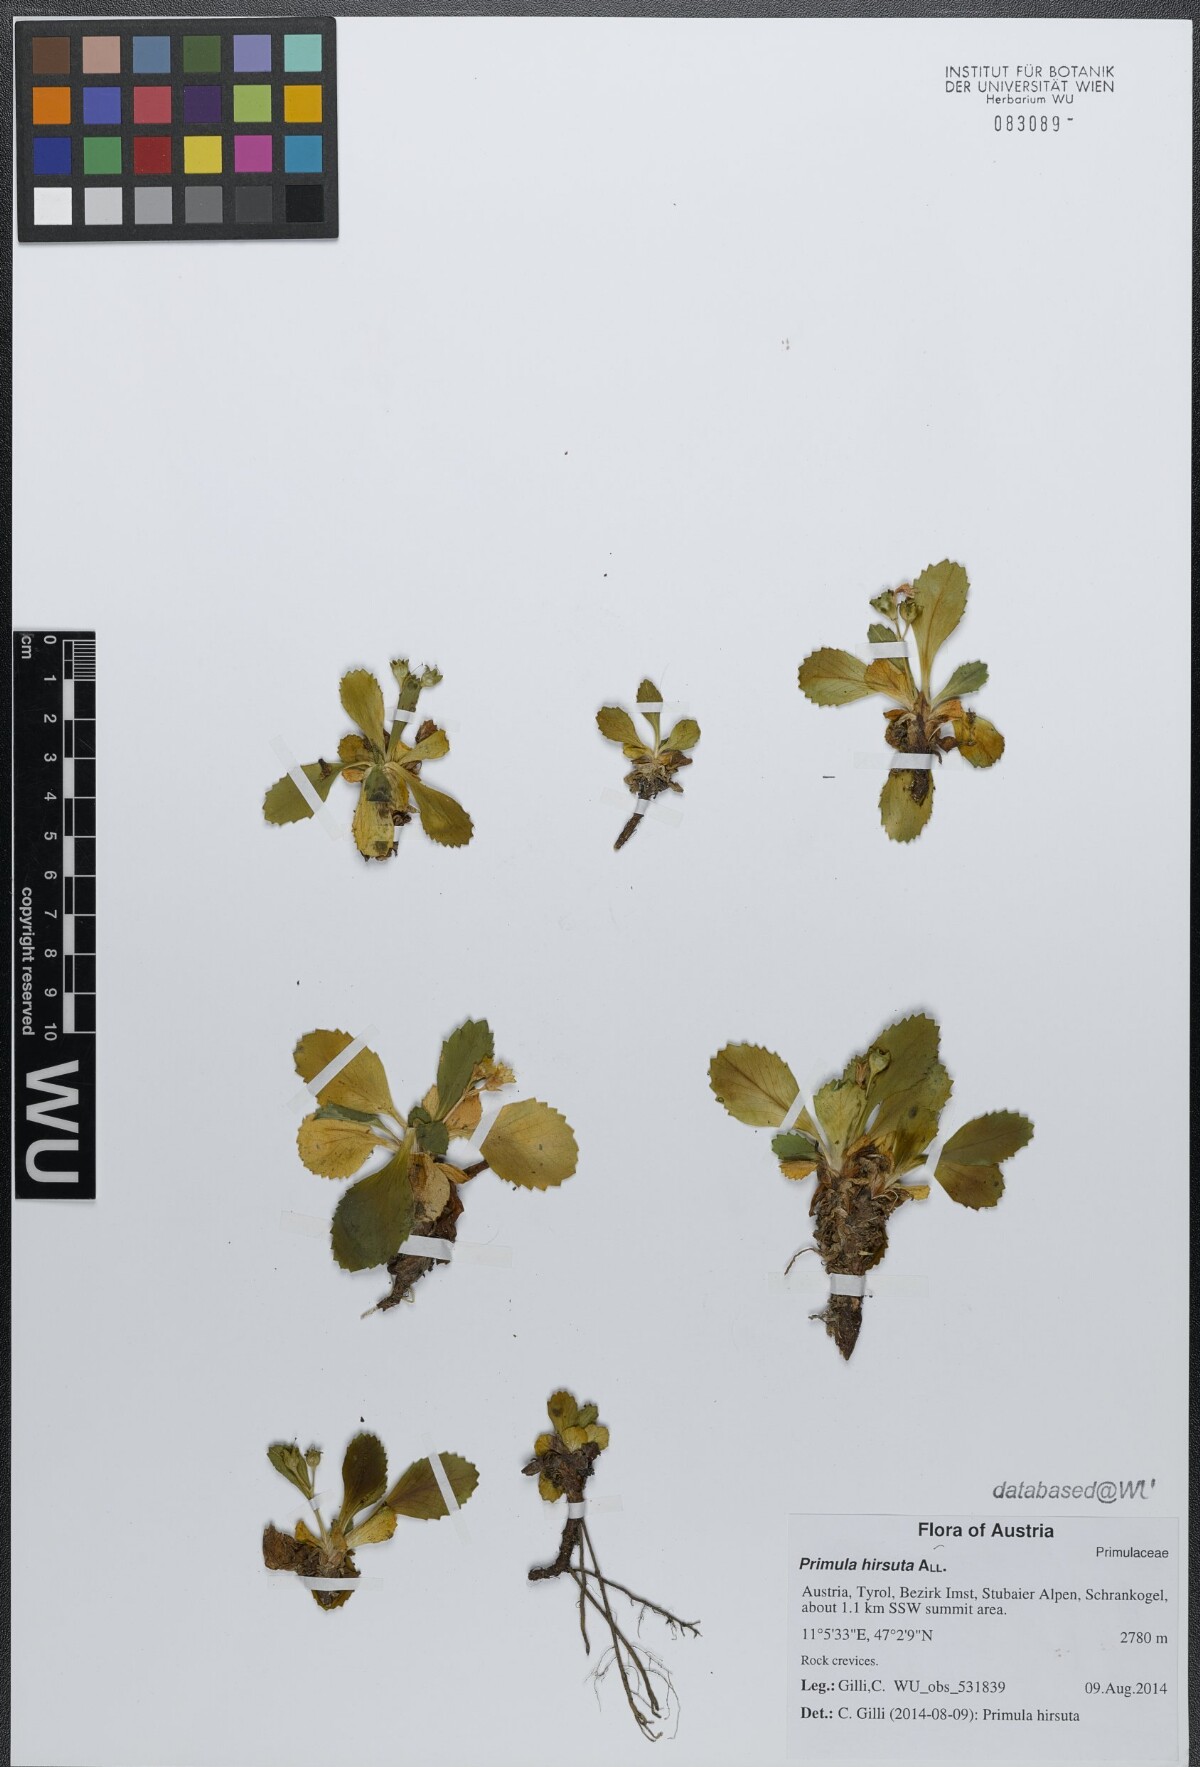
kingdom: Plantae
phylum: Tracheophyta
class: Magnoliopsida
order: Ericales
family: Primulaceae
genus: Primula
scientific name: Primula hirsuta
